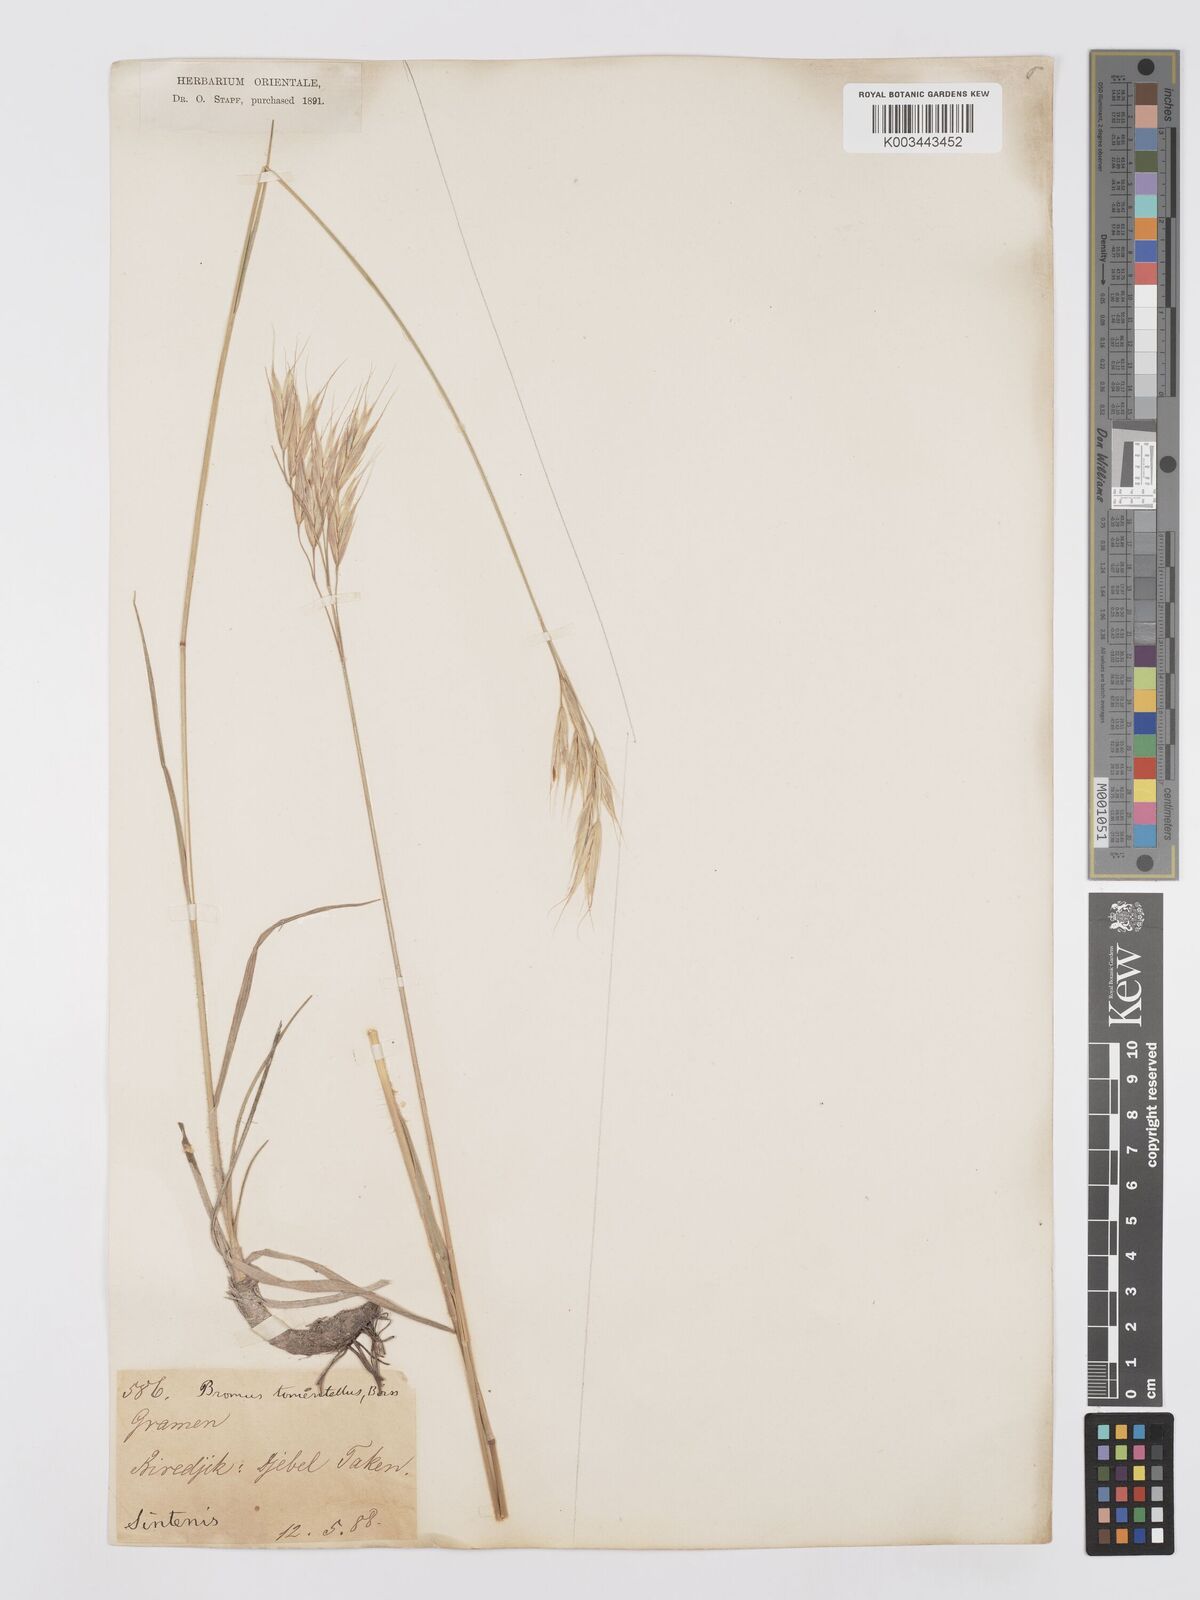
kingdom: Plantae
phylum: Tracheophyta
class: Liliopsida
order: Poales
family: Poaceae
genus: Bromus
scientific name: Bromus tomentellus
